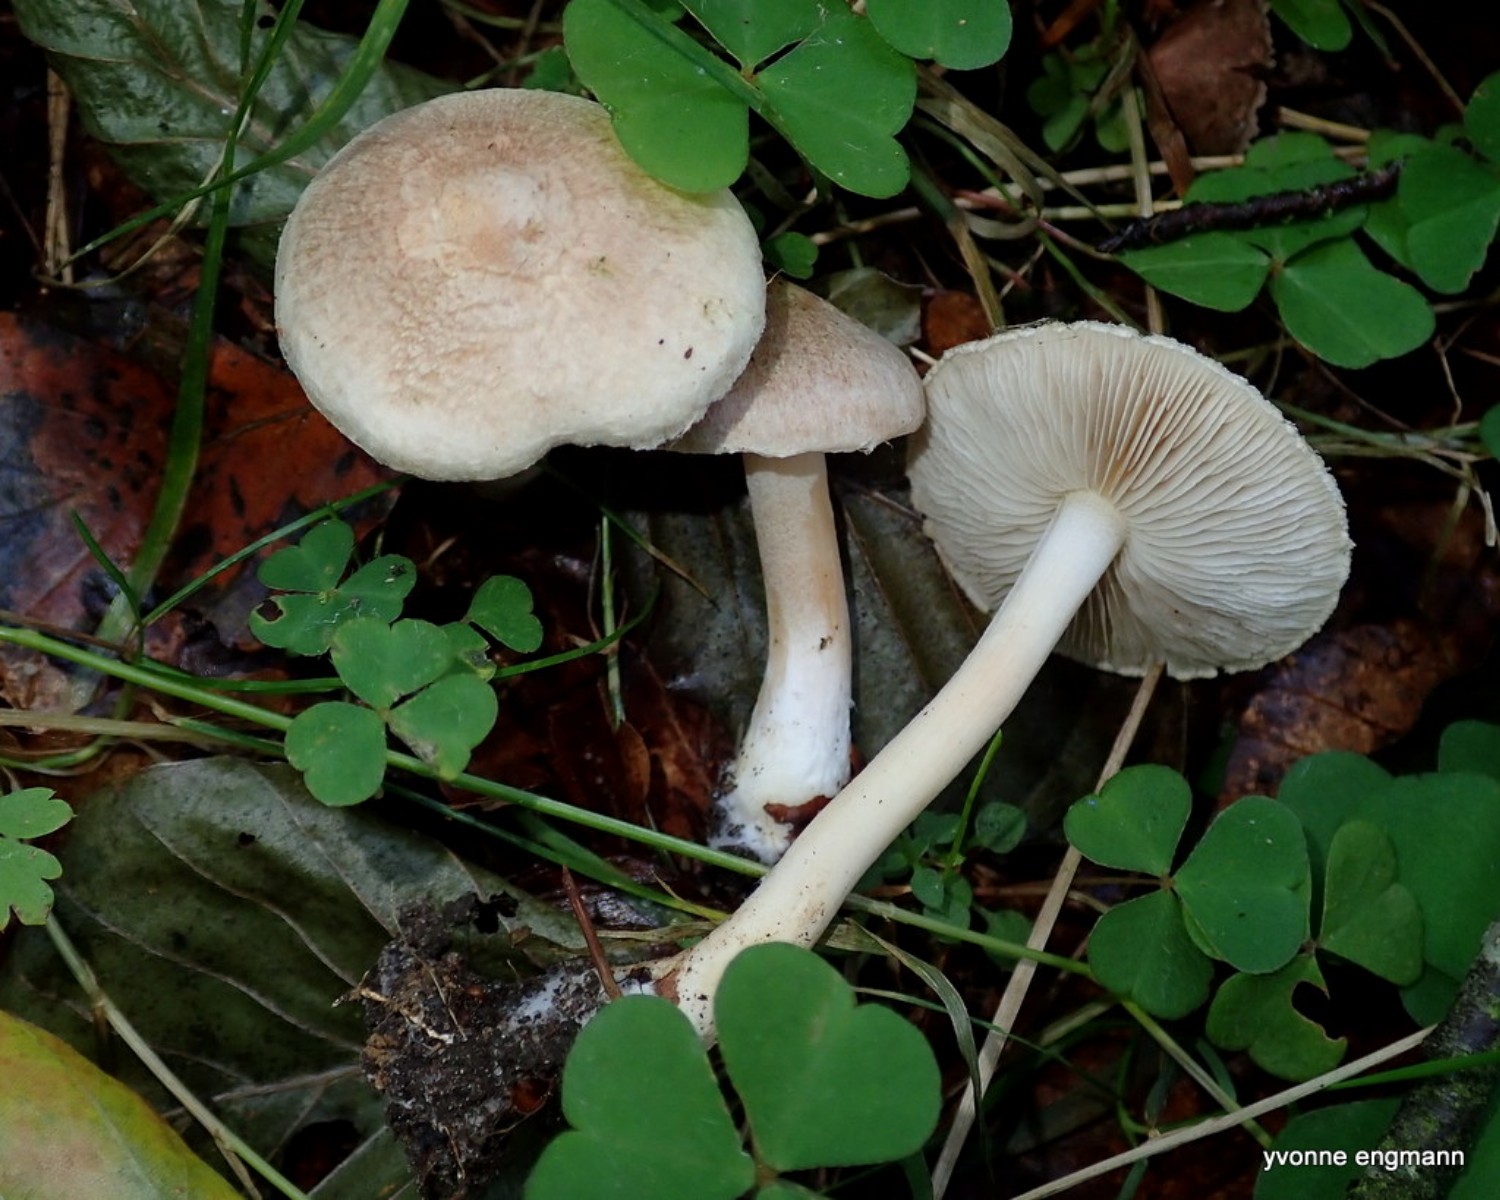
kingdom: Fungi
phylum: Basidiomycota
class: Agaricomycetes
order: Agaricales
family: Inocybaceae
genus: Inocybe
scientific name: Inocybe sindonia
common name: bleg trævlhat
